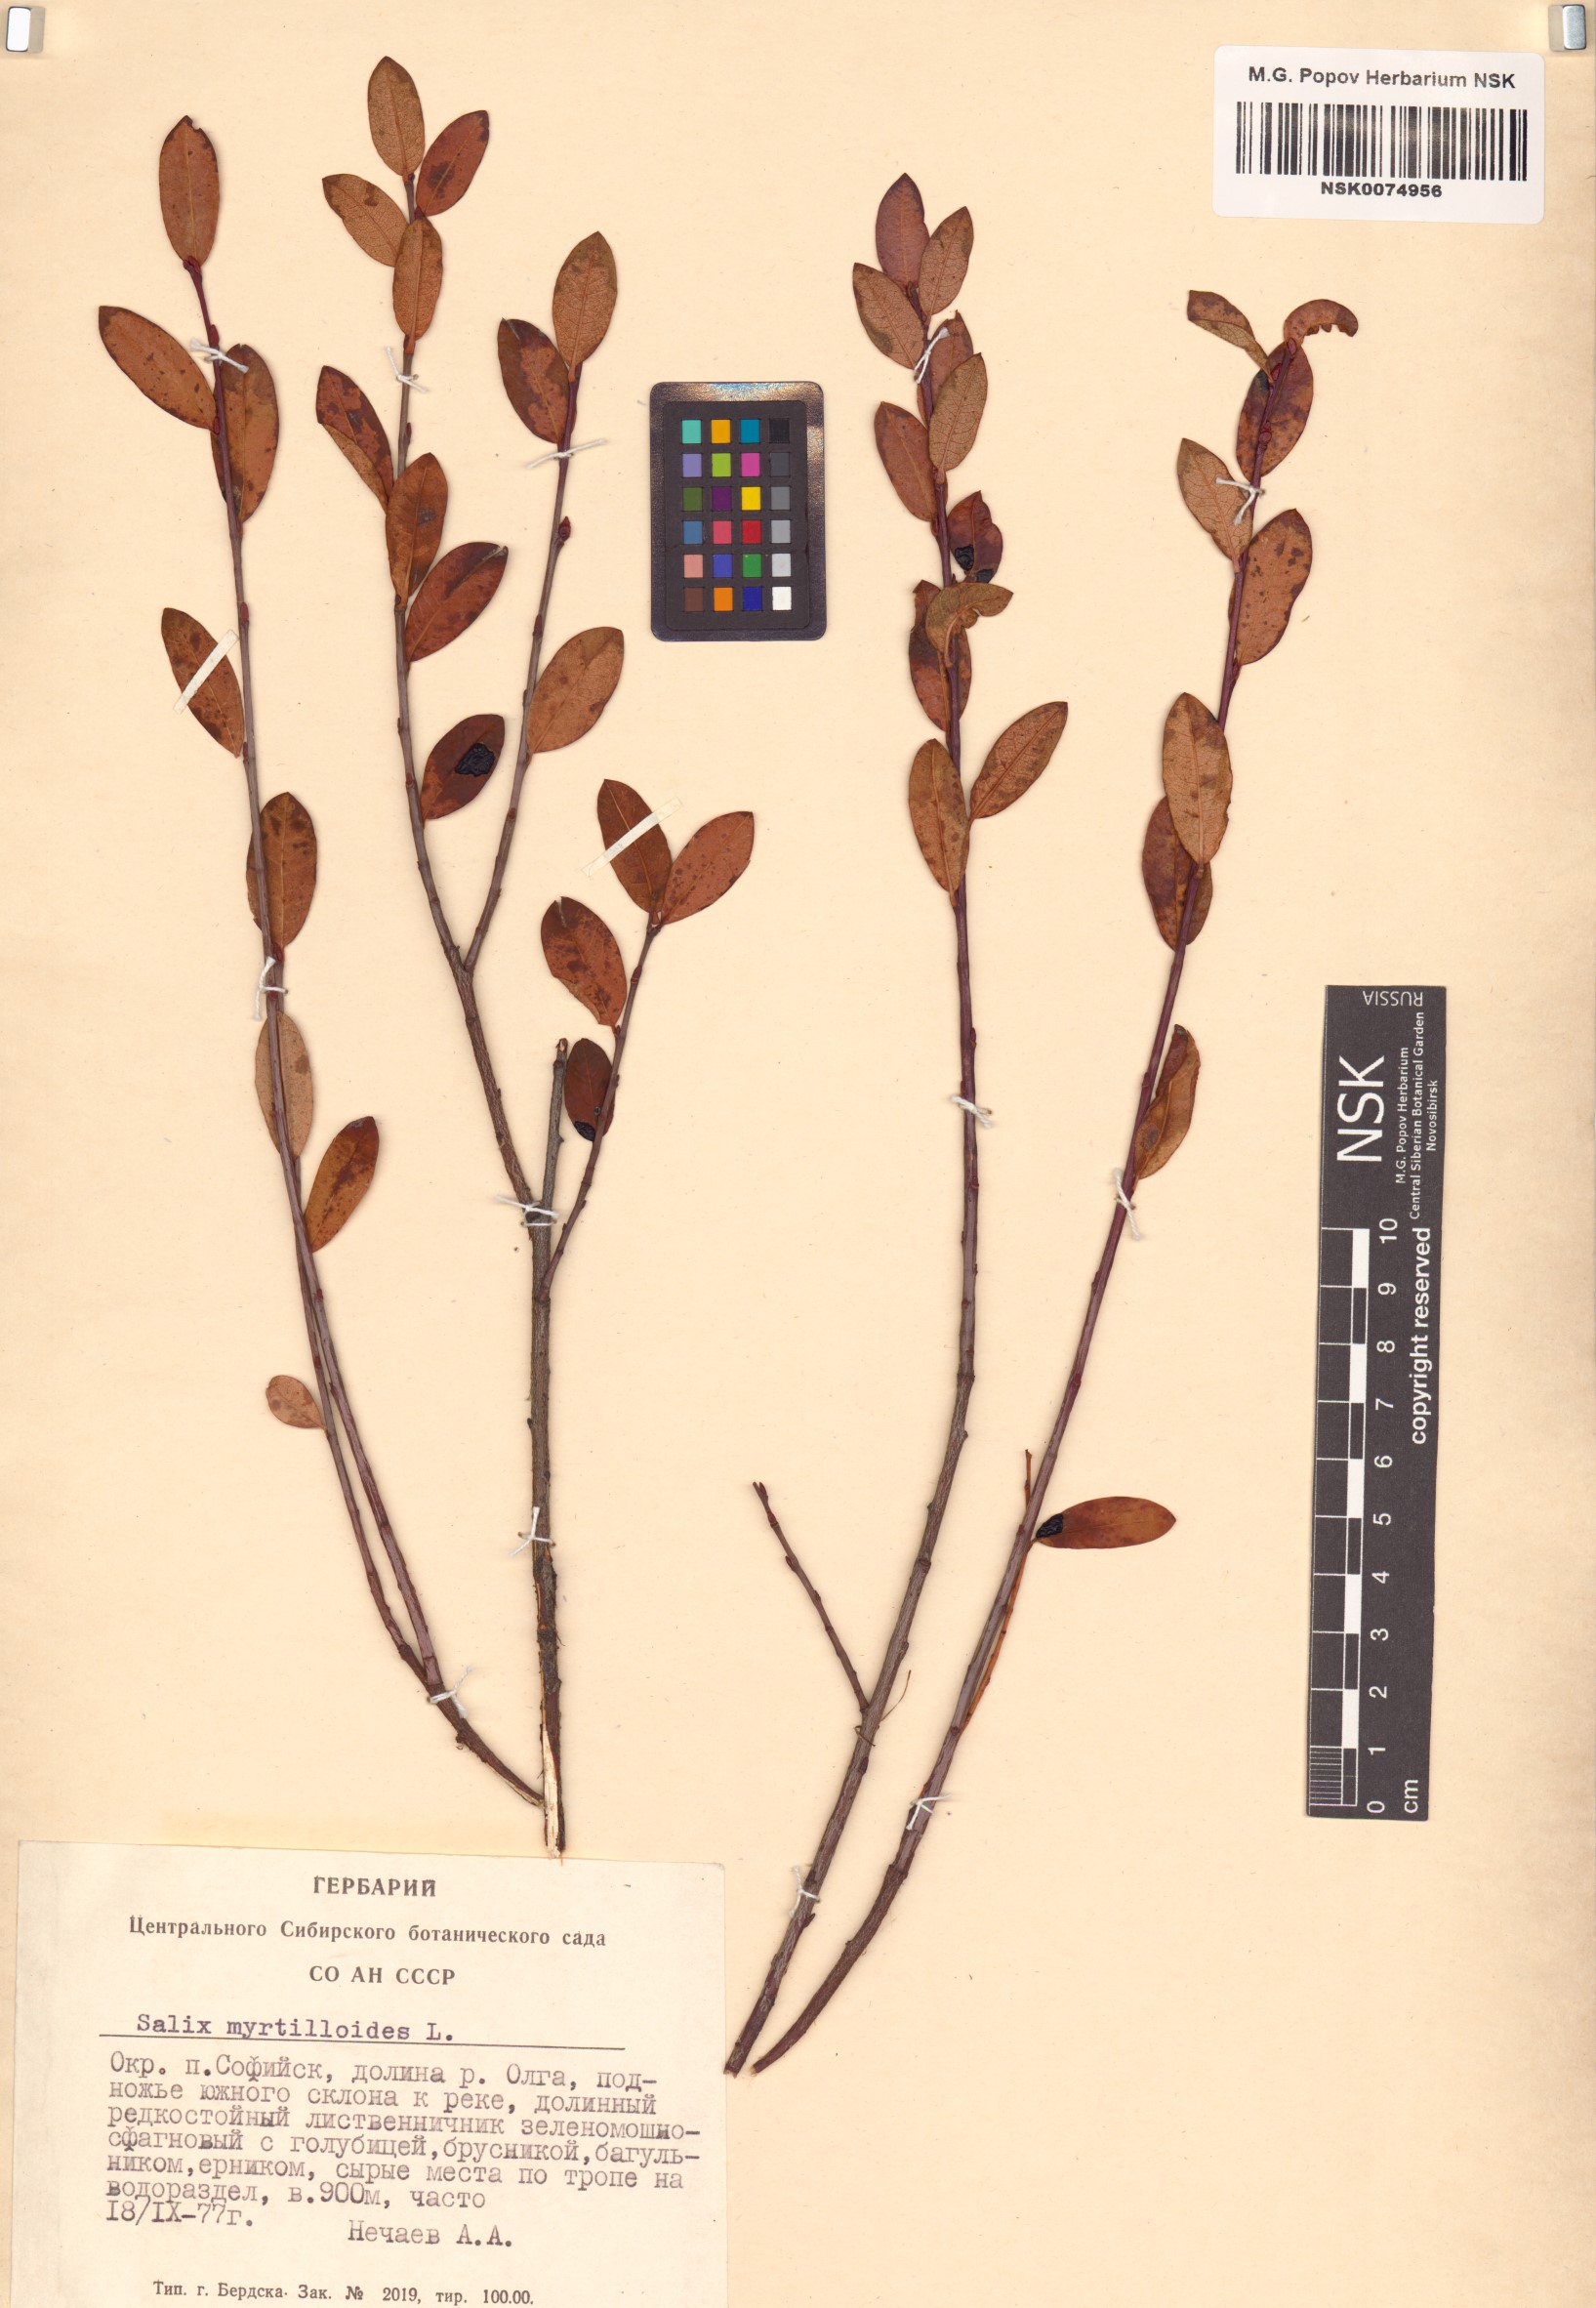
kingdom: Plantae
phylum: Tracheophyta
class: Magnoliopsida
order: Malpighiales
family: Salicaceae
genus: Salix
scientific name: Salix myrtilloides
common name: Myrtle-leaved willow
